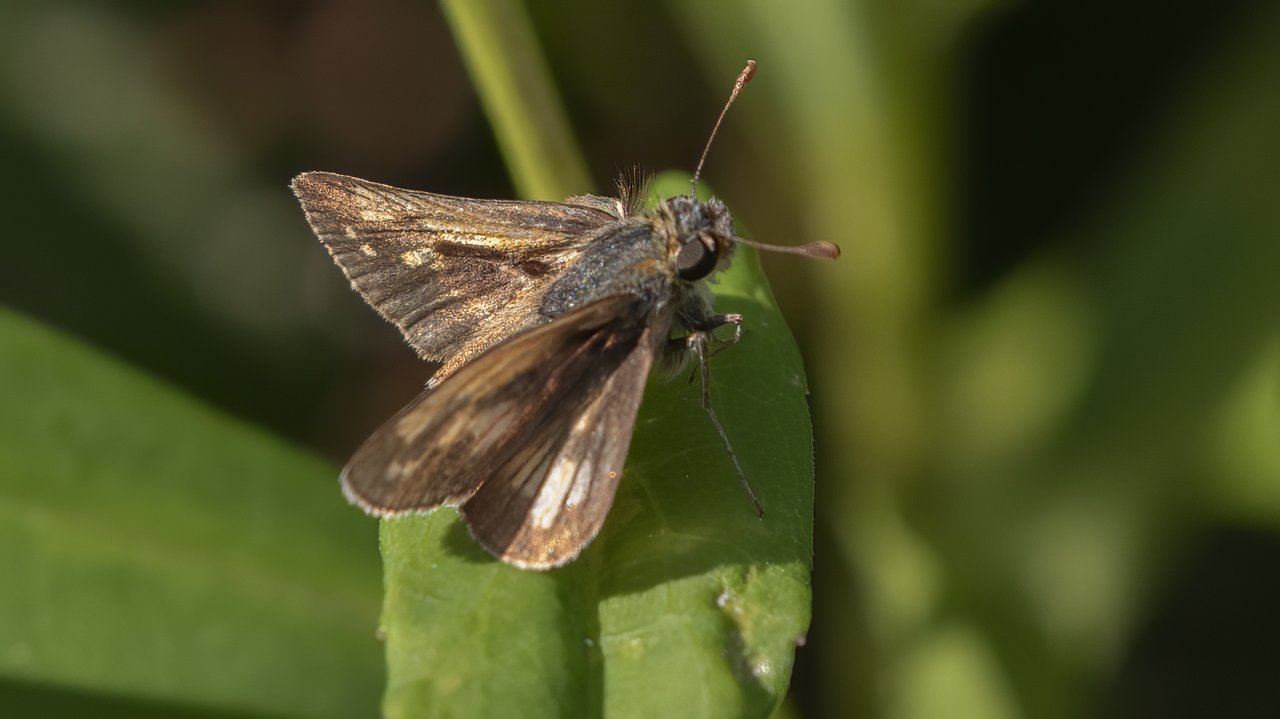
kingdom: Animalia
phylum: Arthropoda
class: Insecta
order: Lepidoptera
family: Hesperiidae
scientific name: Hesperiidae
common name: Skippers
